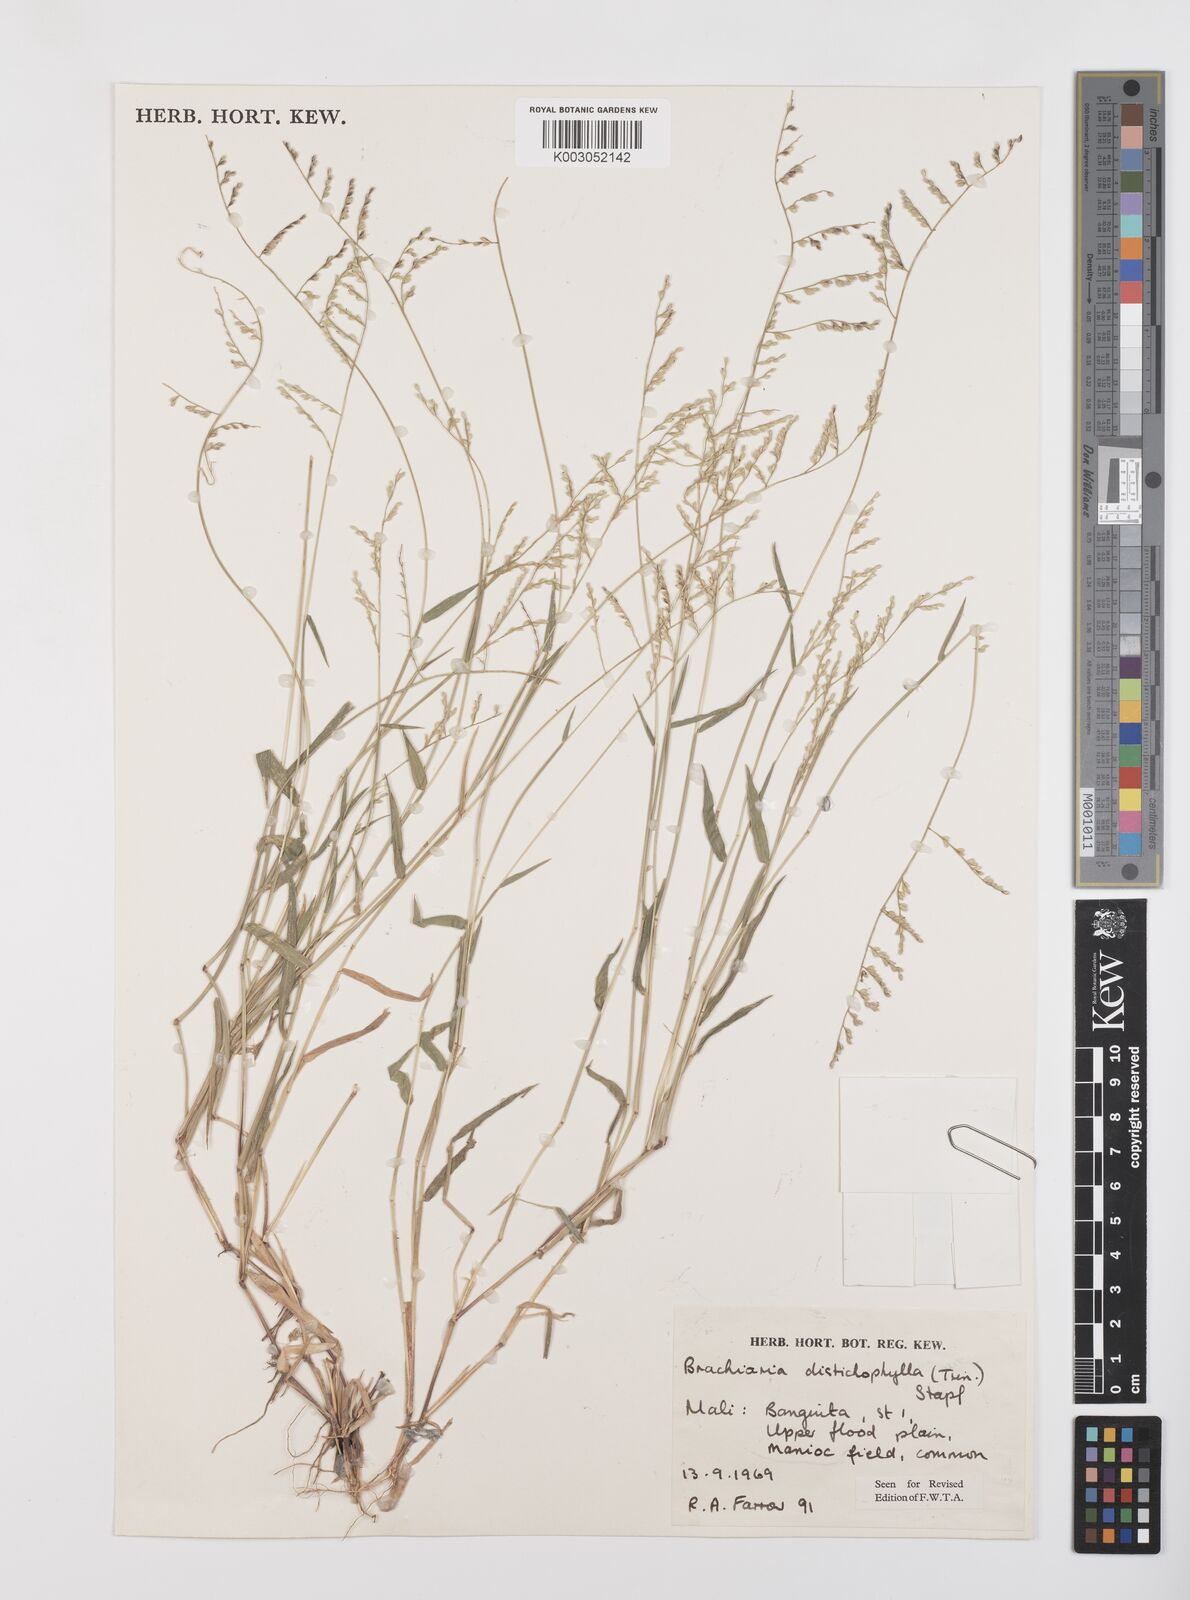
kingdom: Plantae
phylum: Tracheophyta
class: Liliopsida
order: Poales
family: Poaceae
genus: Urochloa
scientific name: Urochloa villosa
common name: Hairy signalgrass
